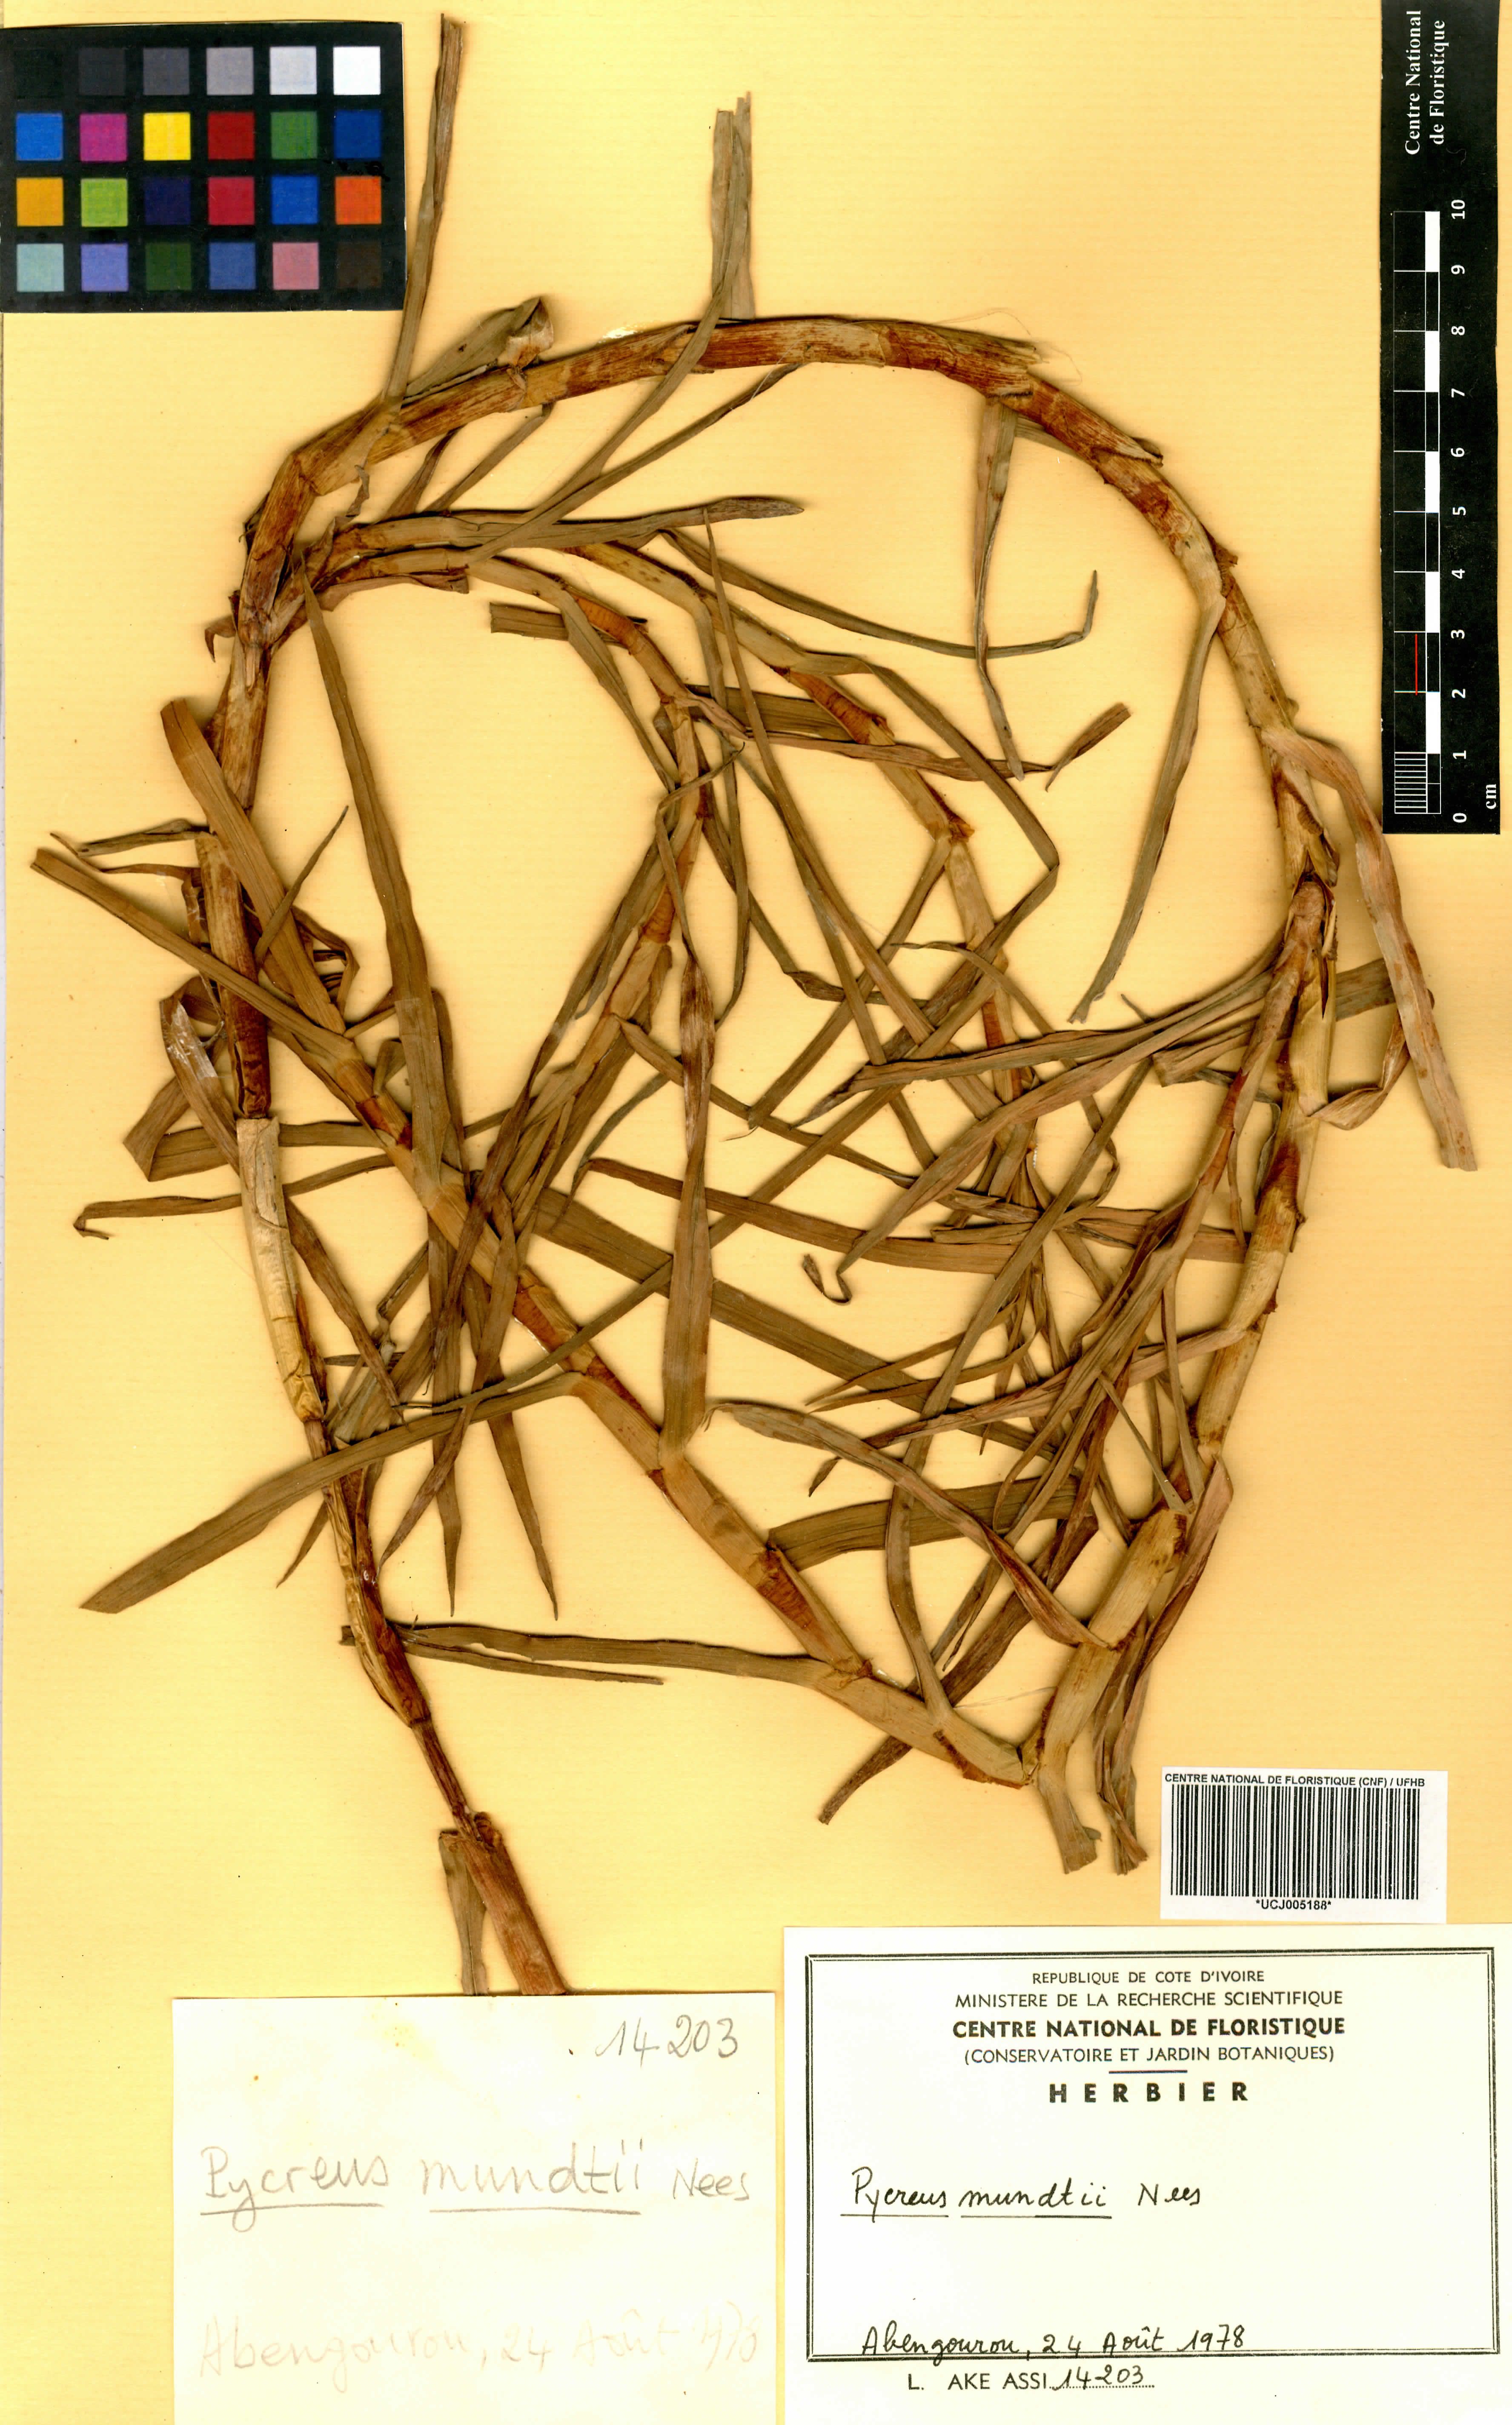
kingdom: Plantae
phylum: Tracheophyta
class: Liliopsida
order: Poales
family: Cyperaceae
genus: Cyperus
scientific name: Cyperus mundii
